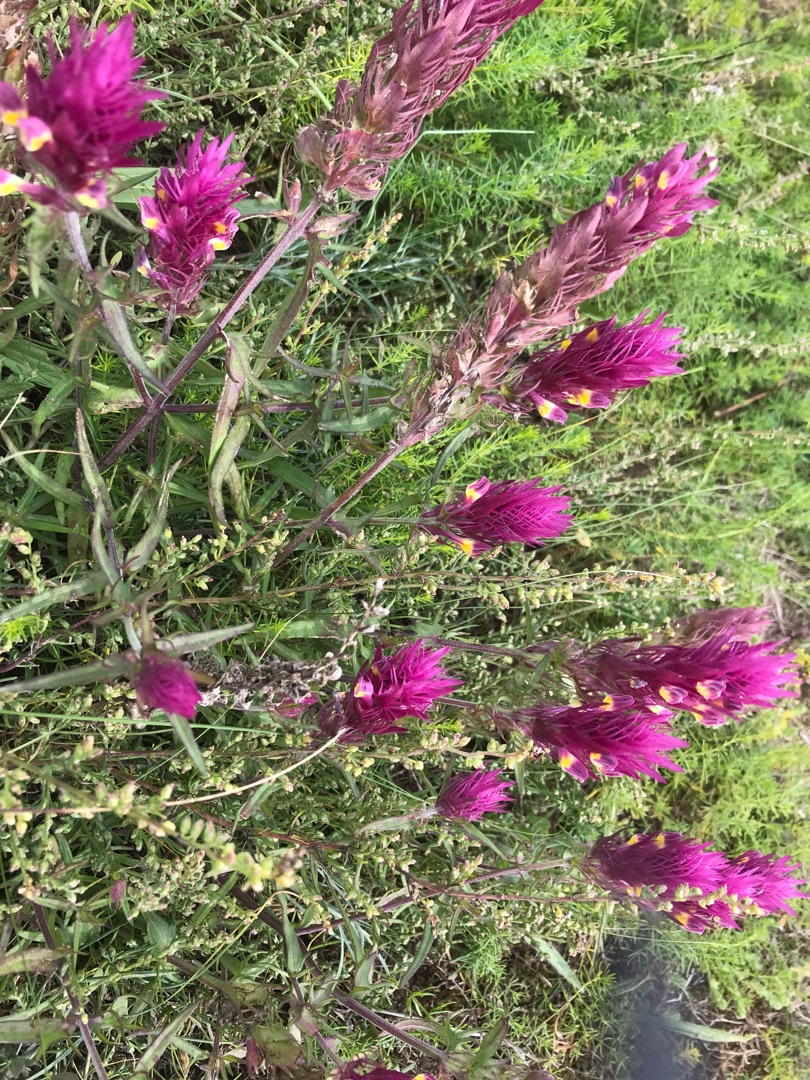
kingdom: Plantae
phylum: Tracheophyta
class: Magnoliopsida
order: Lamiales
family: Orobanchaceae
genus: Melampyrum
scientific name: Melampyrum arvense
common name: Ager-kohvede
